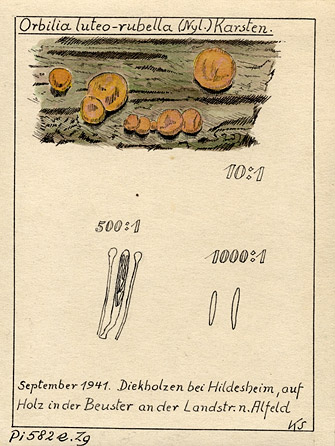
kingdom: Fungi
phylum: Ascomycota
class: Orbiliomycetes
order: Orbiliales
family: Orbiliaceae
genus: Orbilia
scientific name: Orbilia luteorubella
